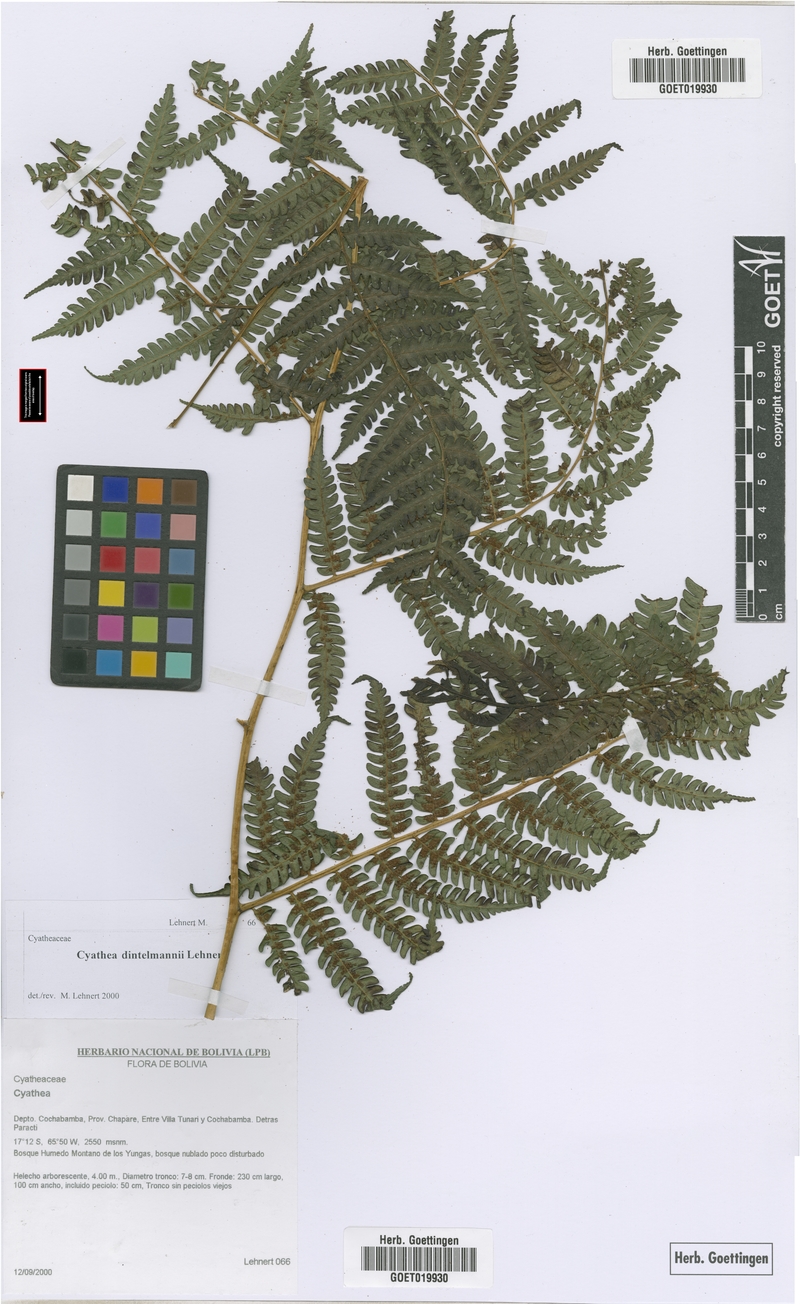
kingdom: Plantae
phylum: Tracheophyta
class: Polypodiopsida
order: Cyatheales
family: Cyatheaceae
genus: Cyathea
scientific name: Cyathea dintelmannii
